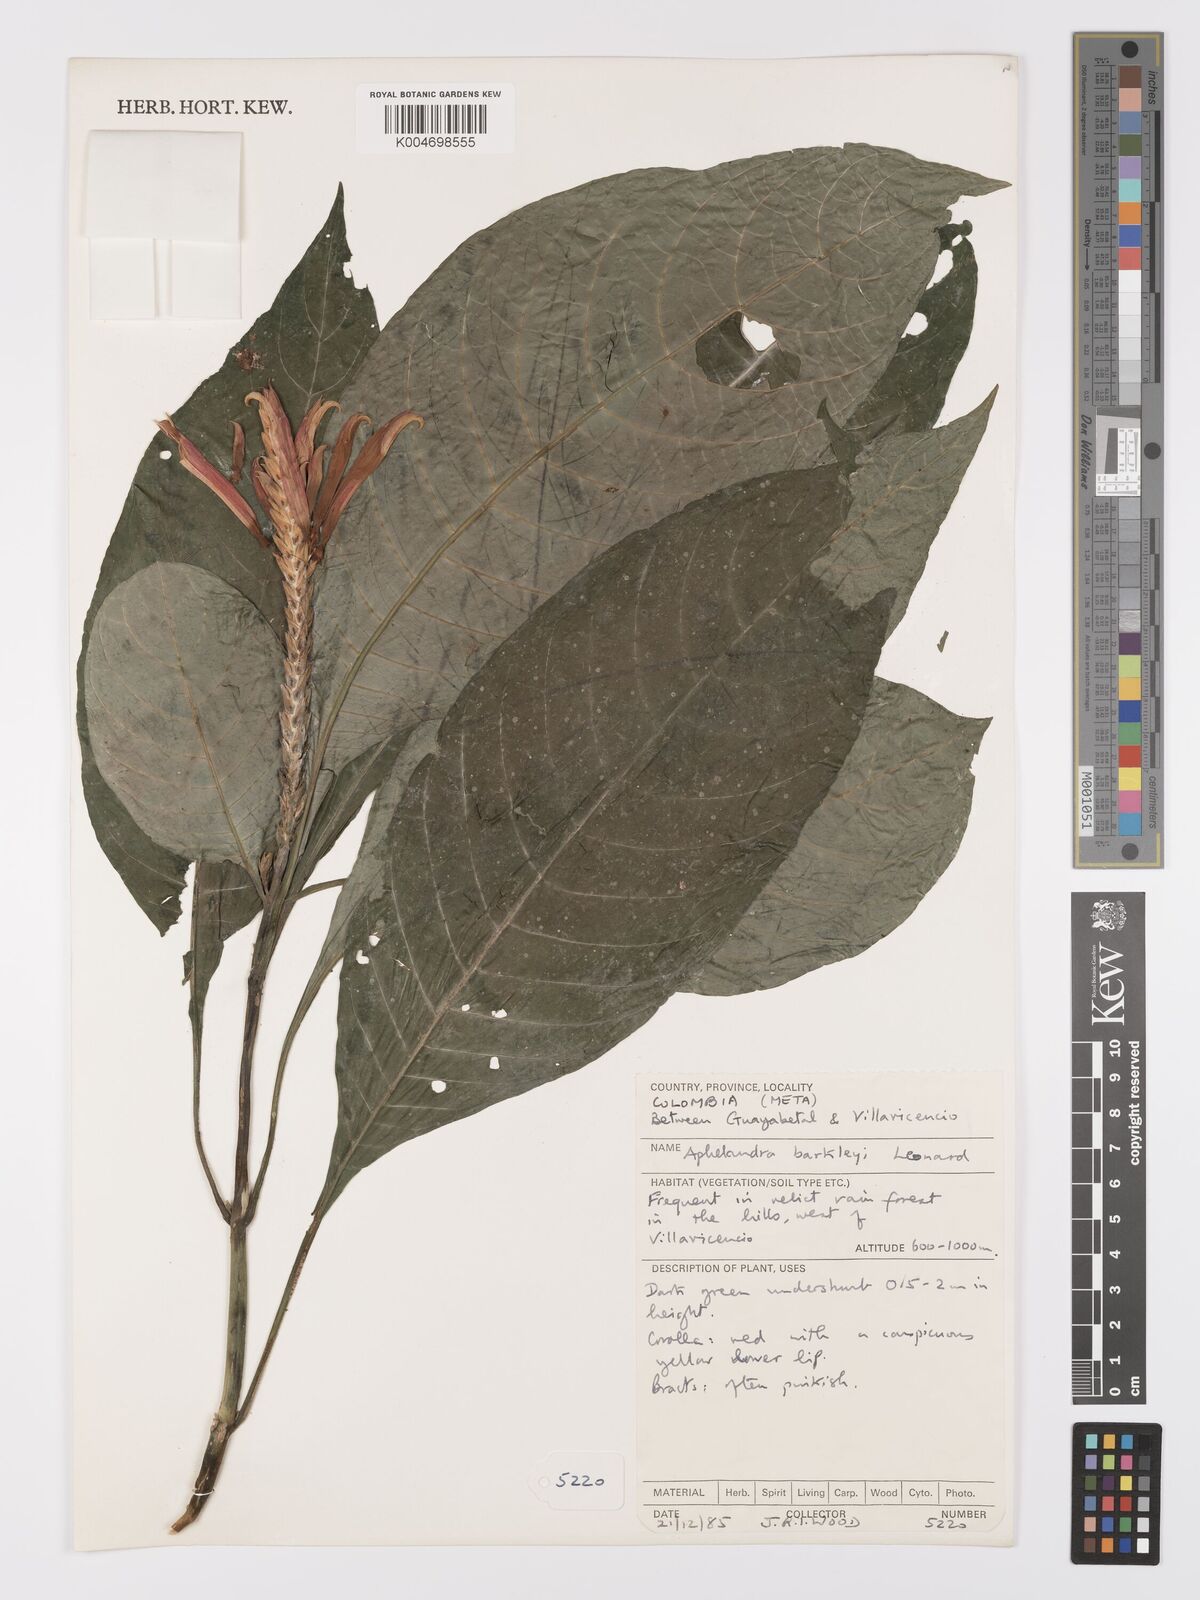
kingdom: Plantae
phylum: Tracheophyta
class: Magnoliopsida
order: Lamiales
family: Acanthaceae
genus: Aphelandra
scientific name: Aphelandra barkleyi
